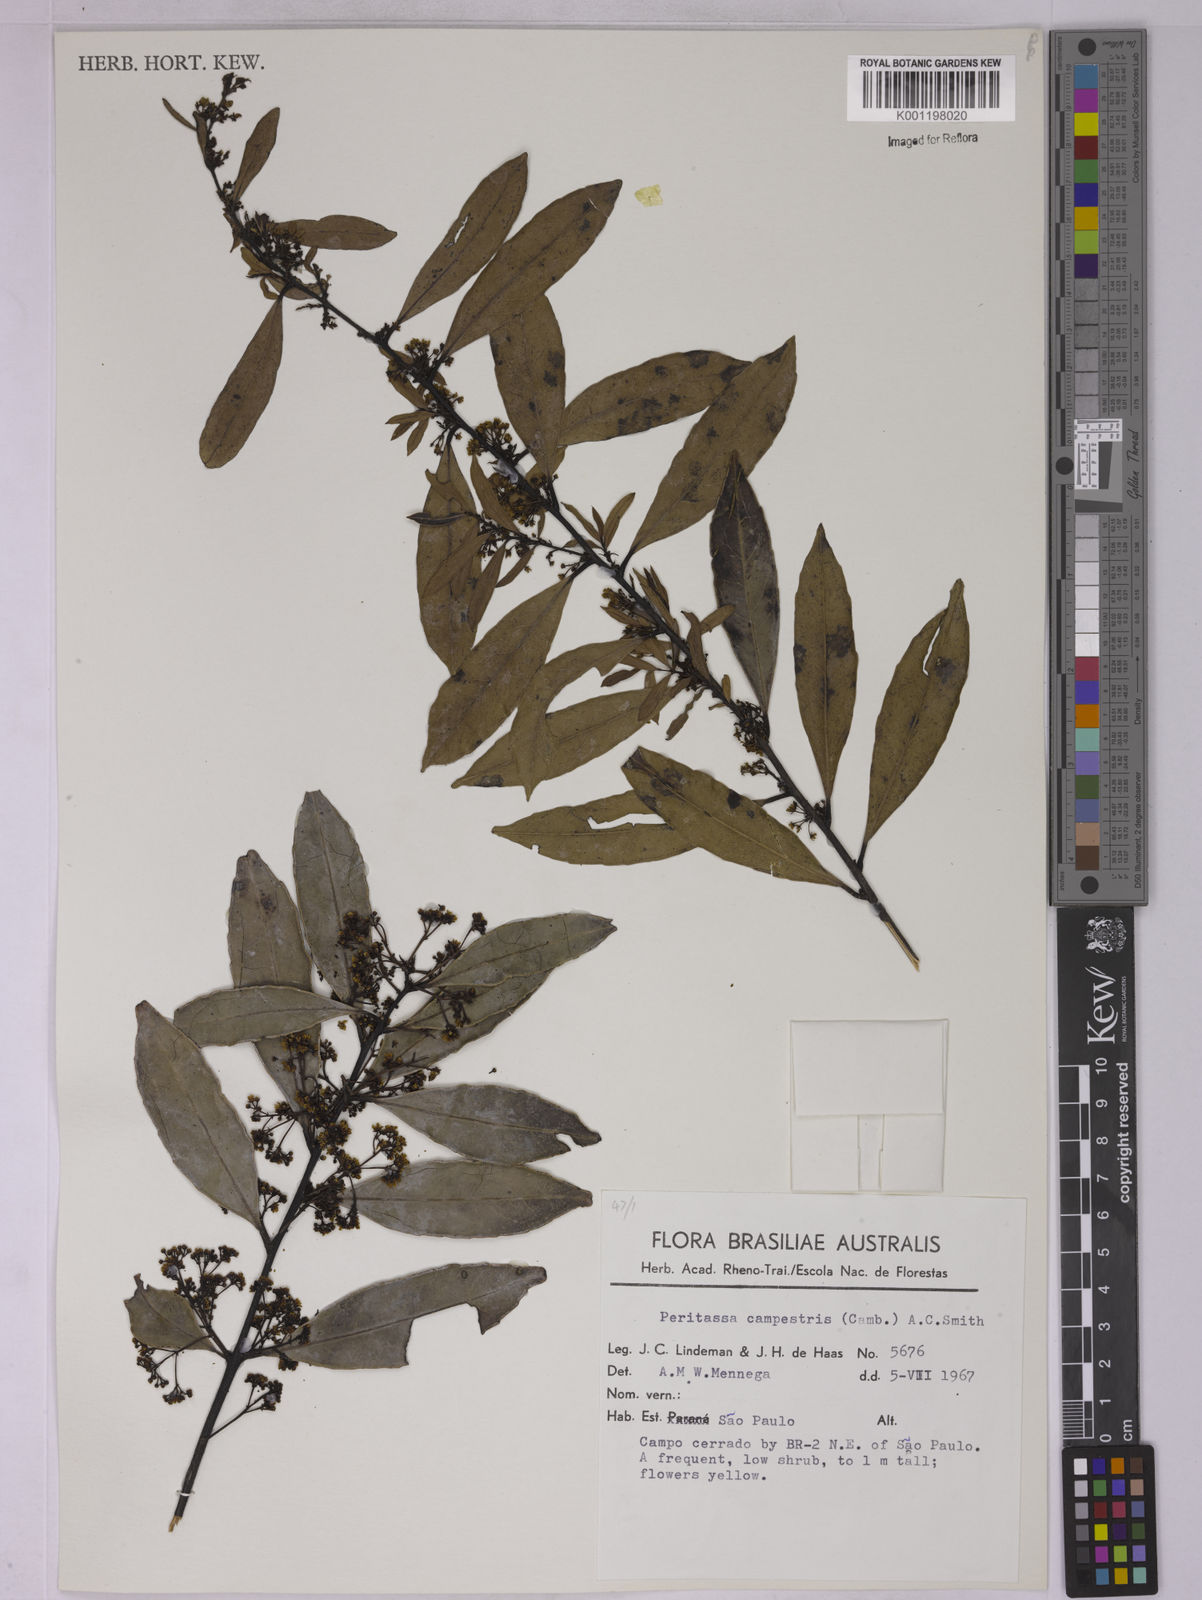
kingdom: Plantae
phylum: Tracheophyta
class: Magnoliopsida
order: Celastrales
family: Celastraceae
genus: Peritassa
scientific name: Peritassa campestris
